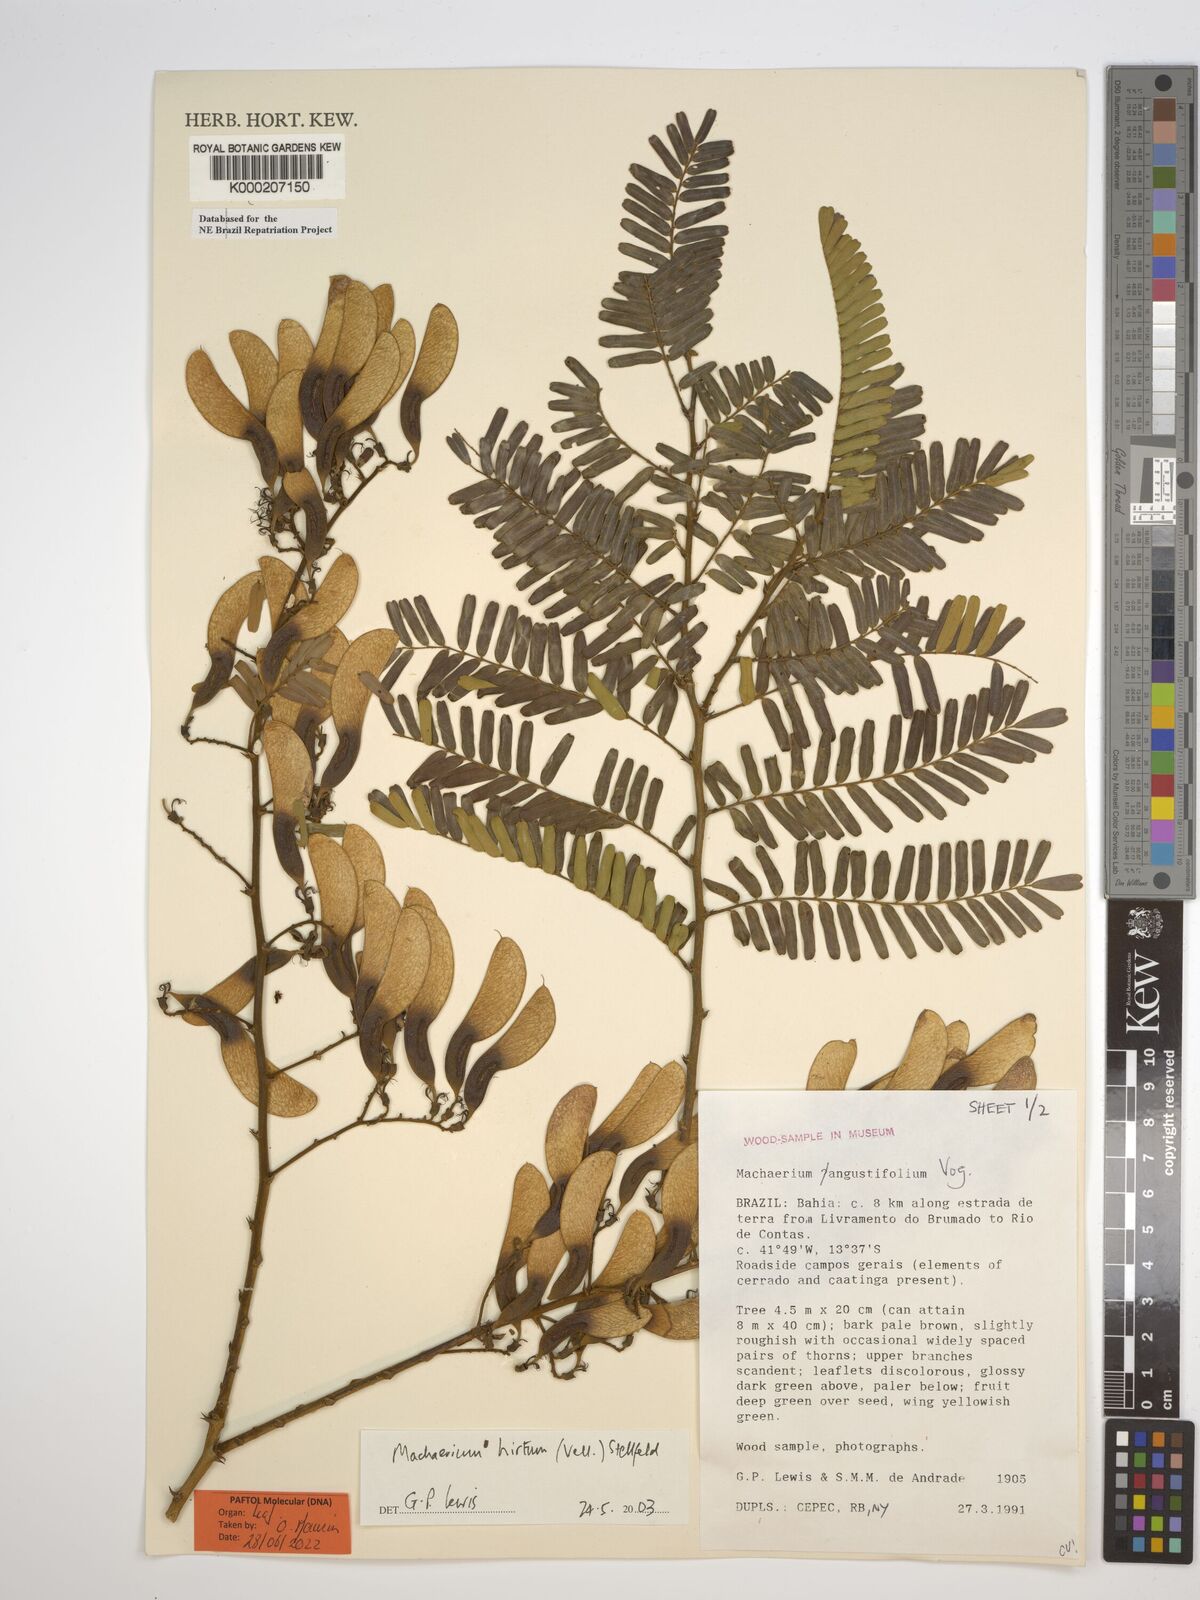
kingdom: Plantae
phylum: Tracheophyta
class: Magnoliopsida
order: Fabales
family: Fabaceae
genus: Machaerium
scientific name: Machaerium hirtum
